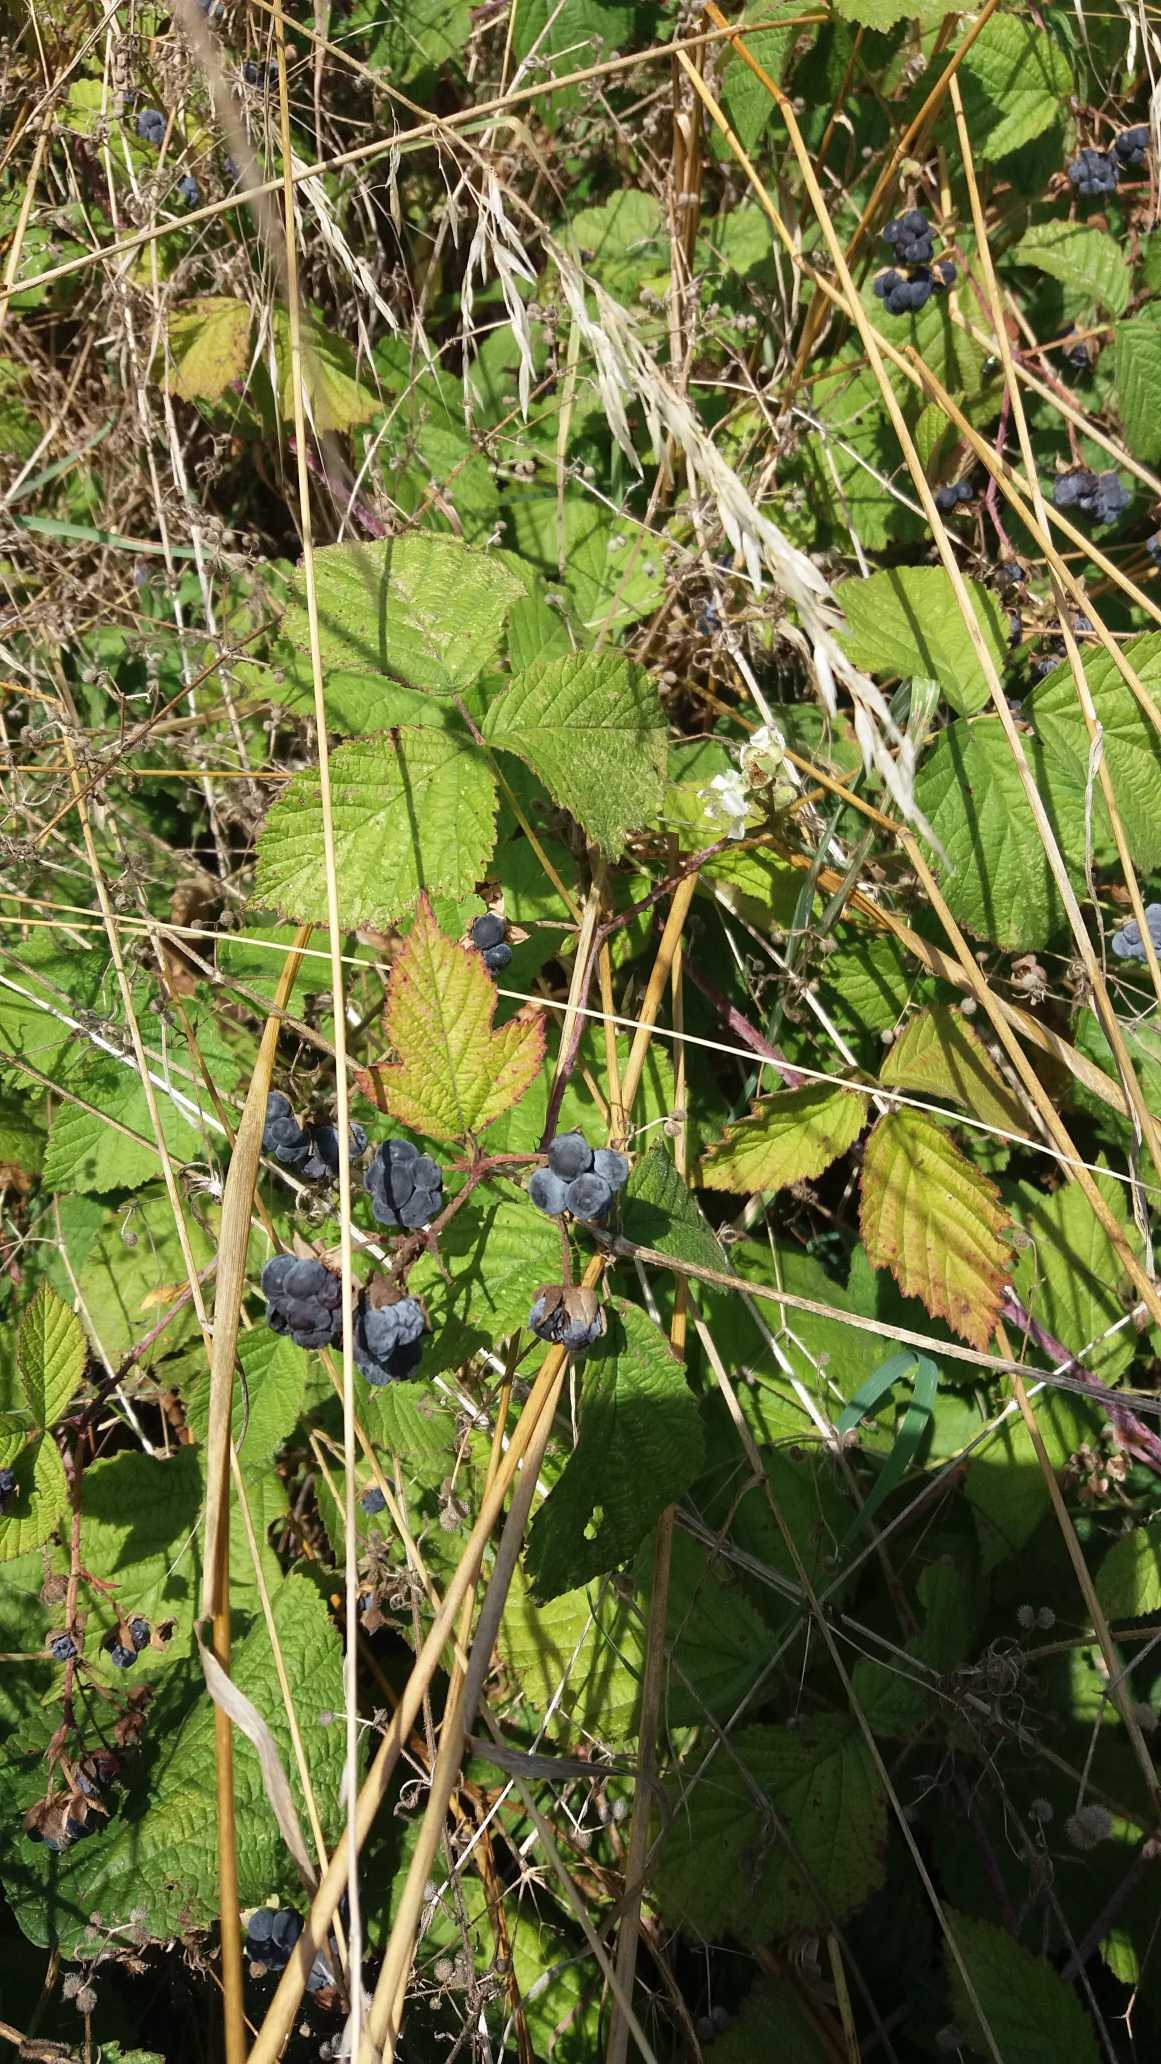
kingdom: Plantae
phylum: Tracheophyta
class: Magnoliopsida
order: Rosales
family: Rosaceae
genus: Rubus
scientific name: Rubus caesius
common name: Korbær
